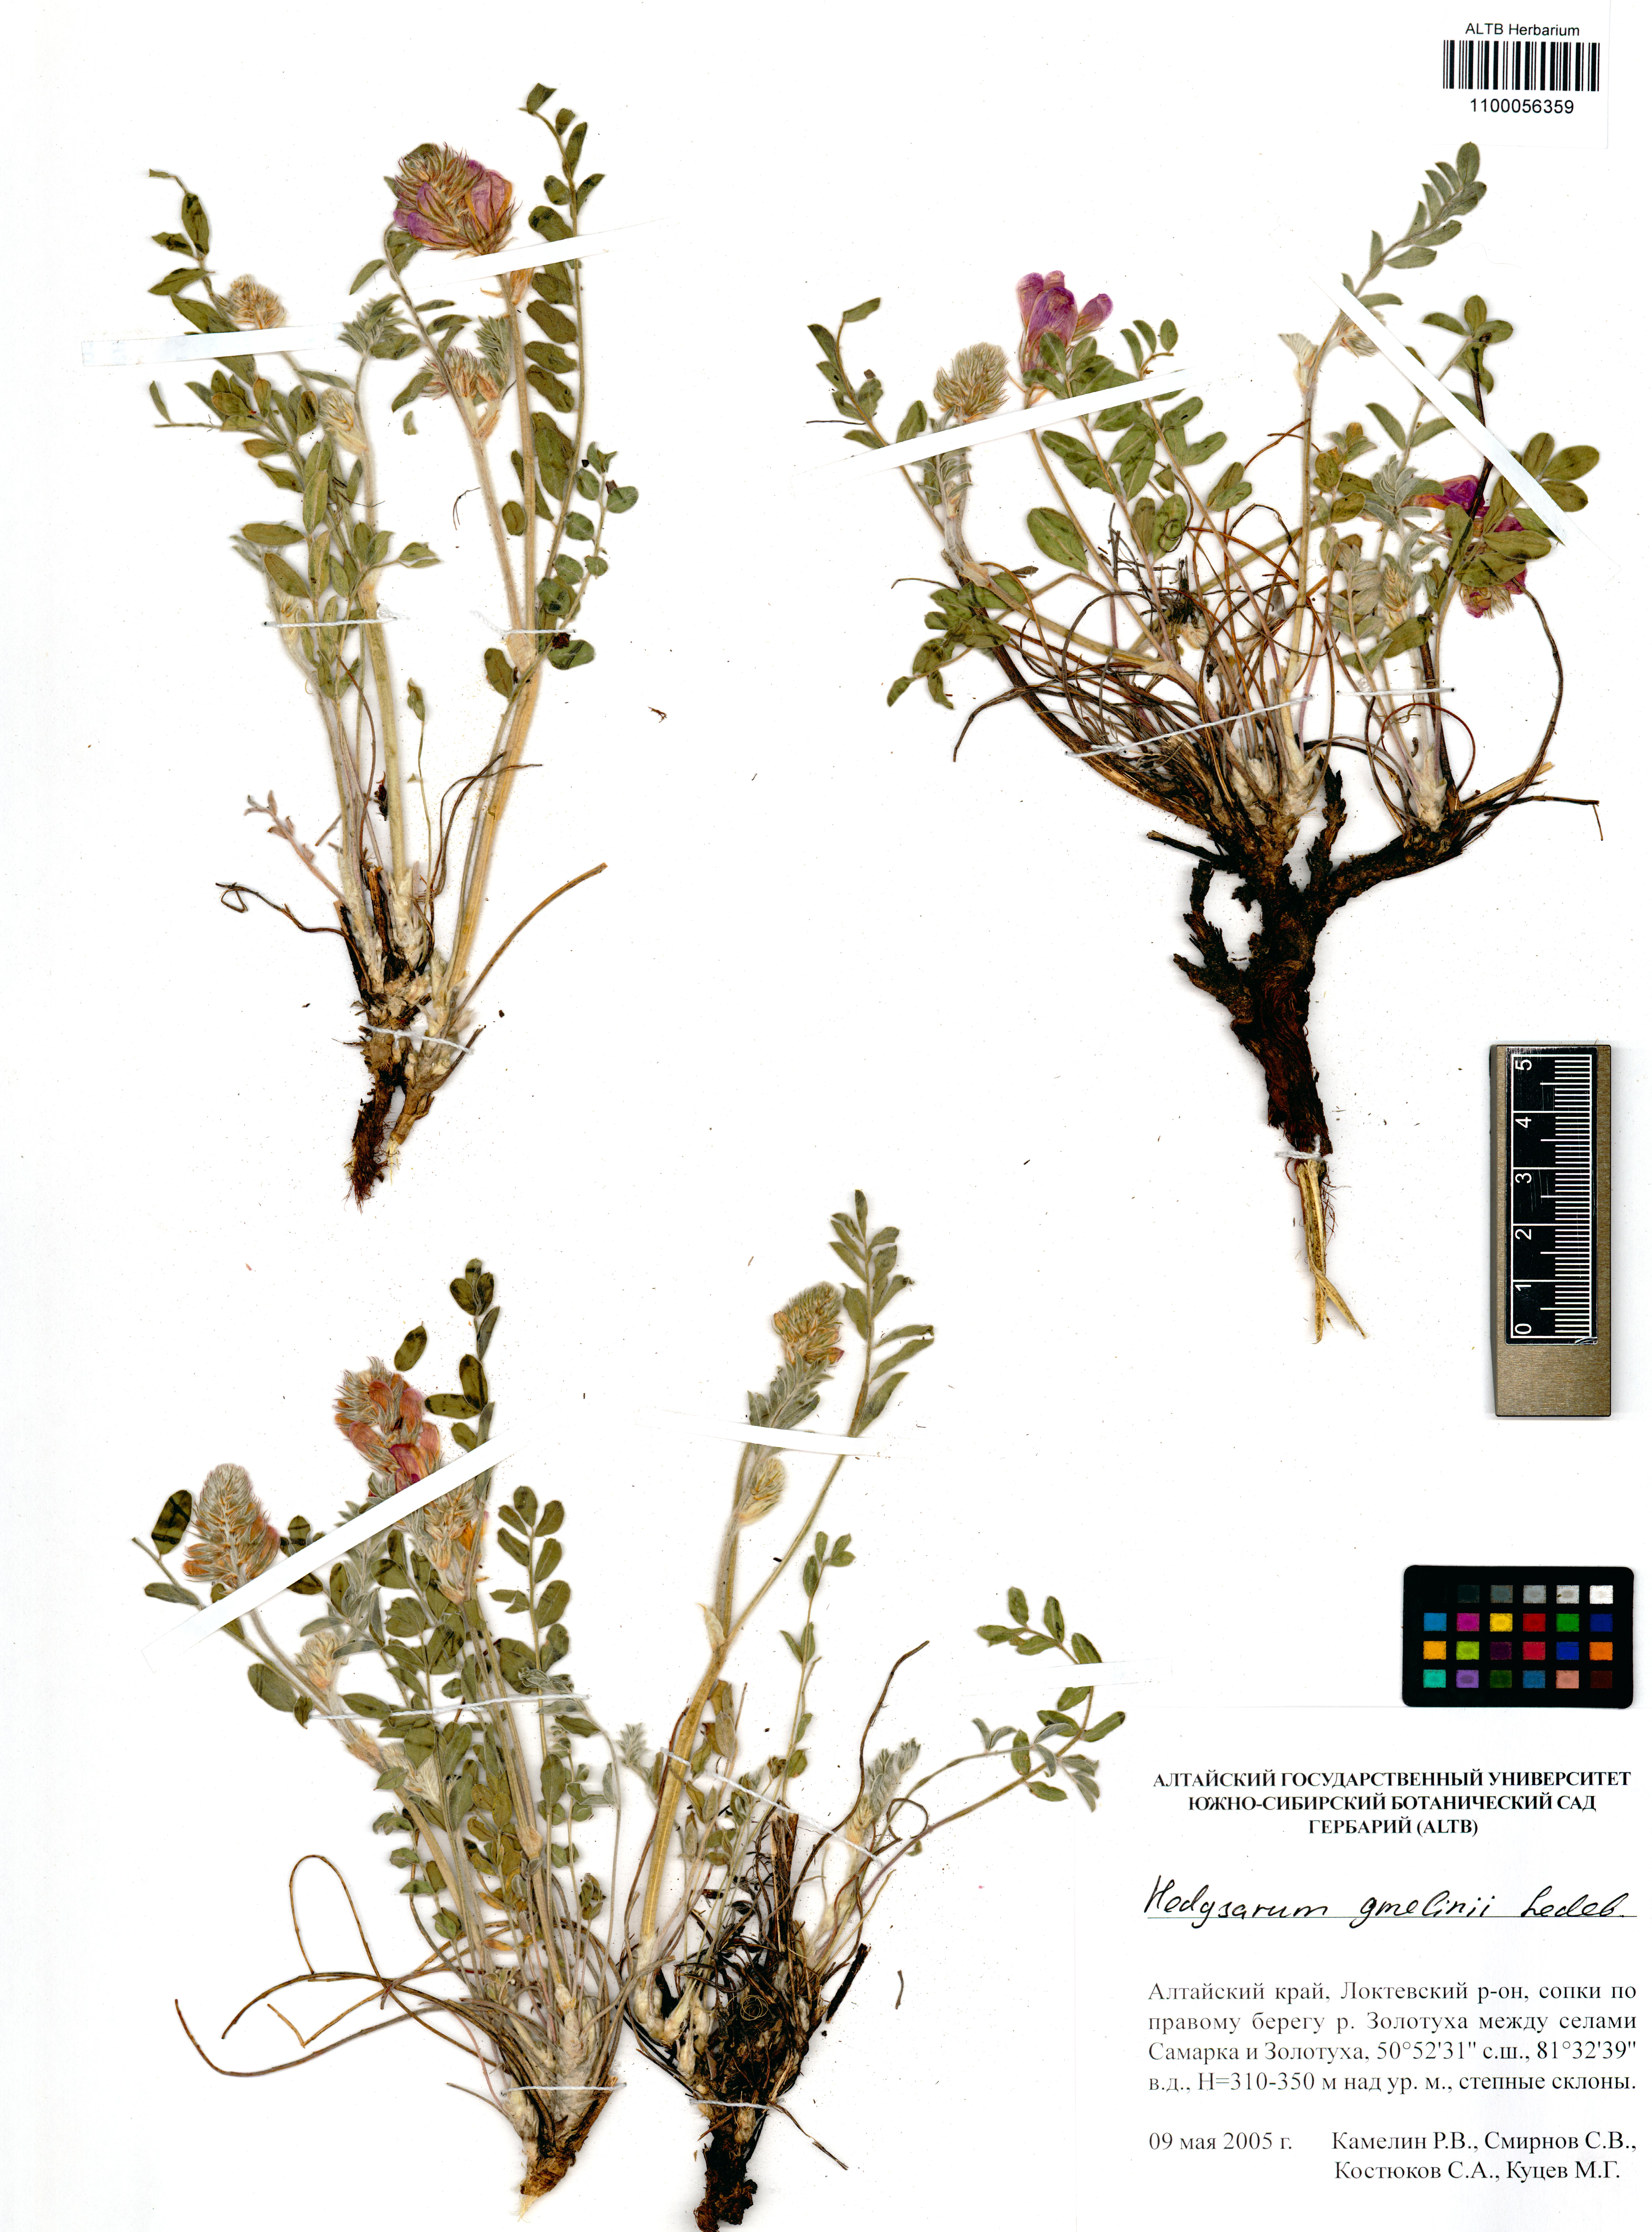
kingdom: Plantae
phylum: Tracheophyta
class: Magnoliopsida
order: Fabales
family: Fabaceae
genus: Hedysarum
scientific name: Hedysarum gmelinii
